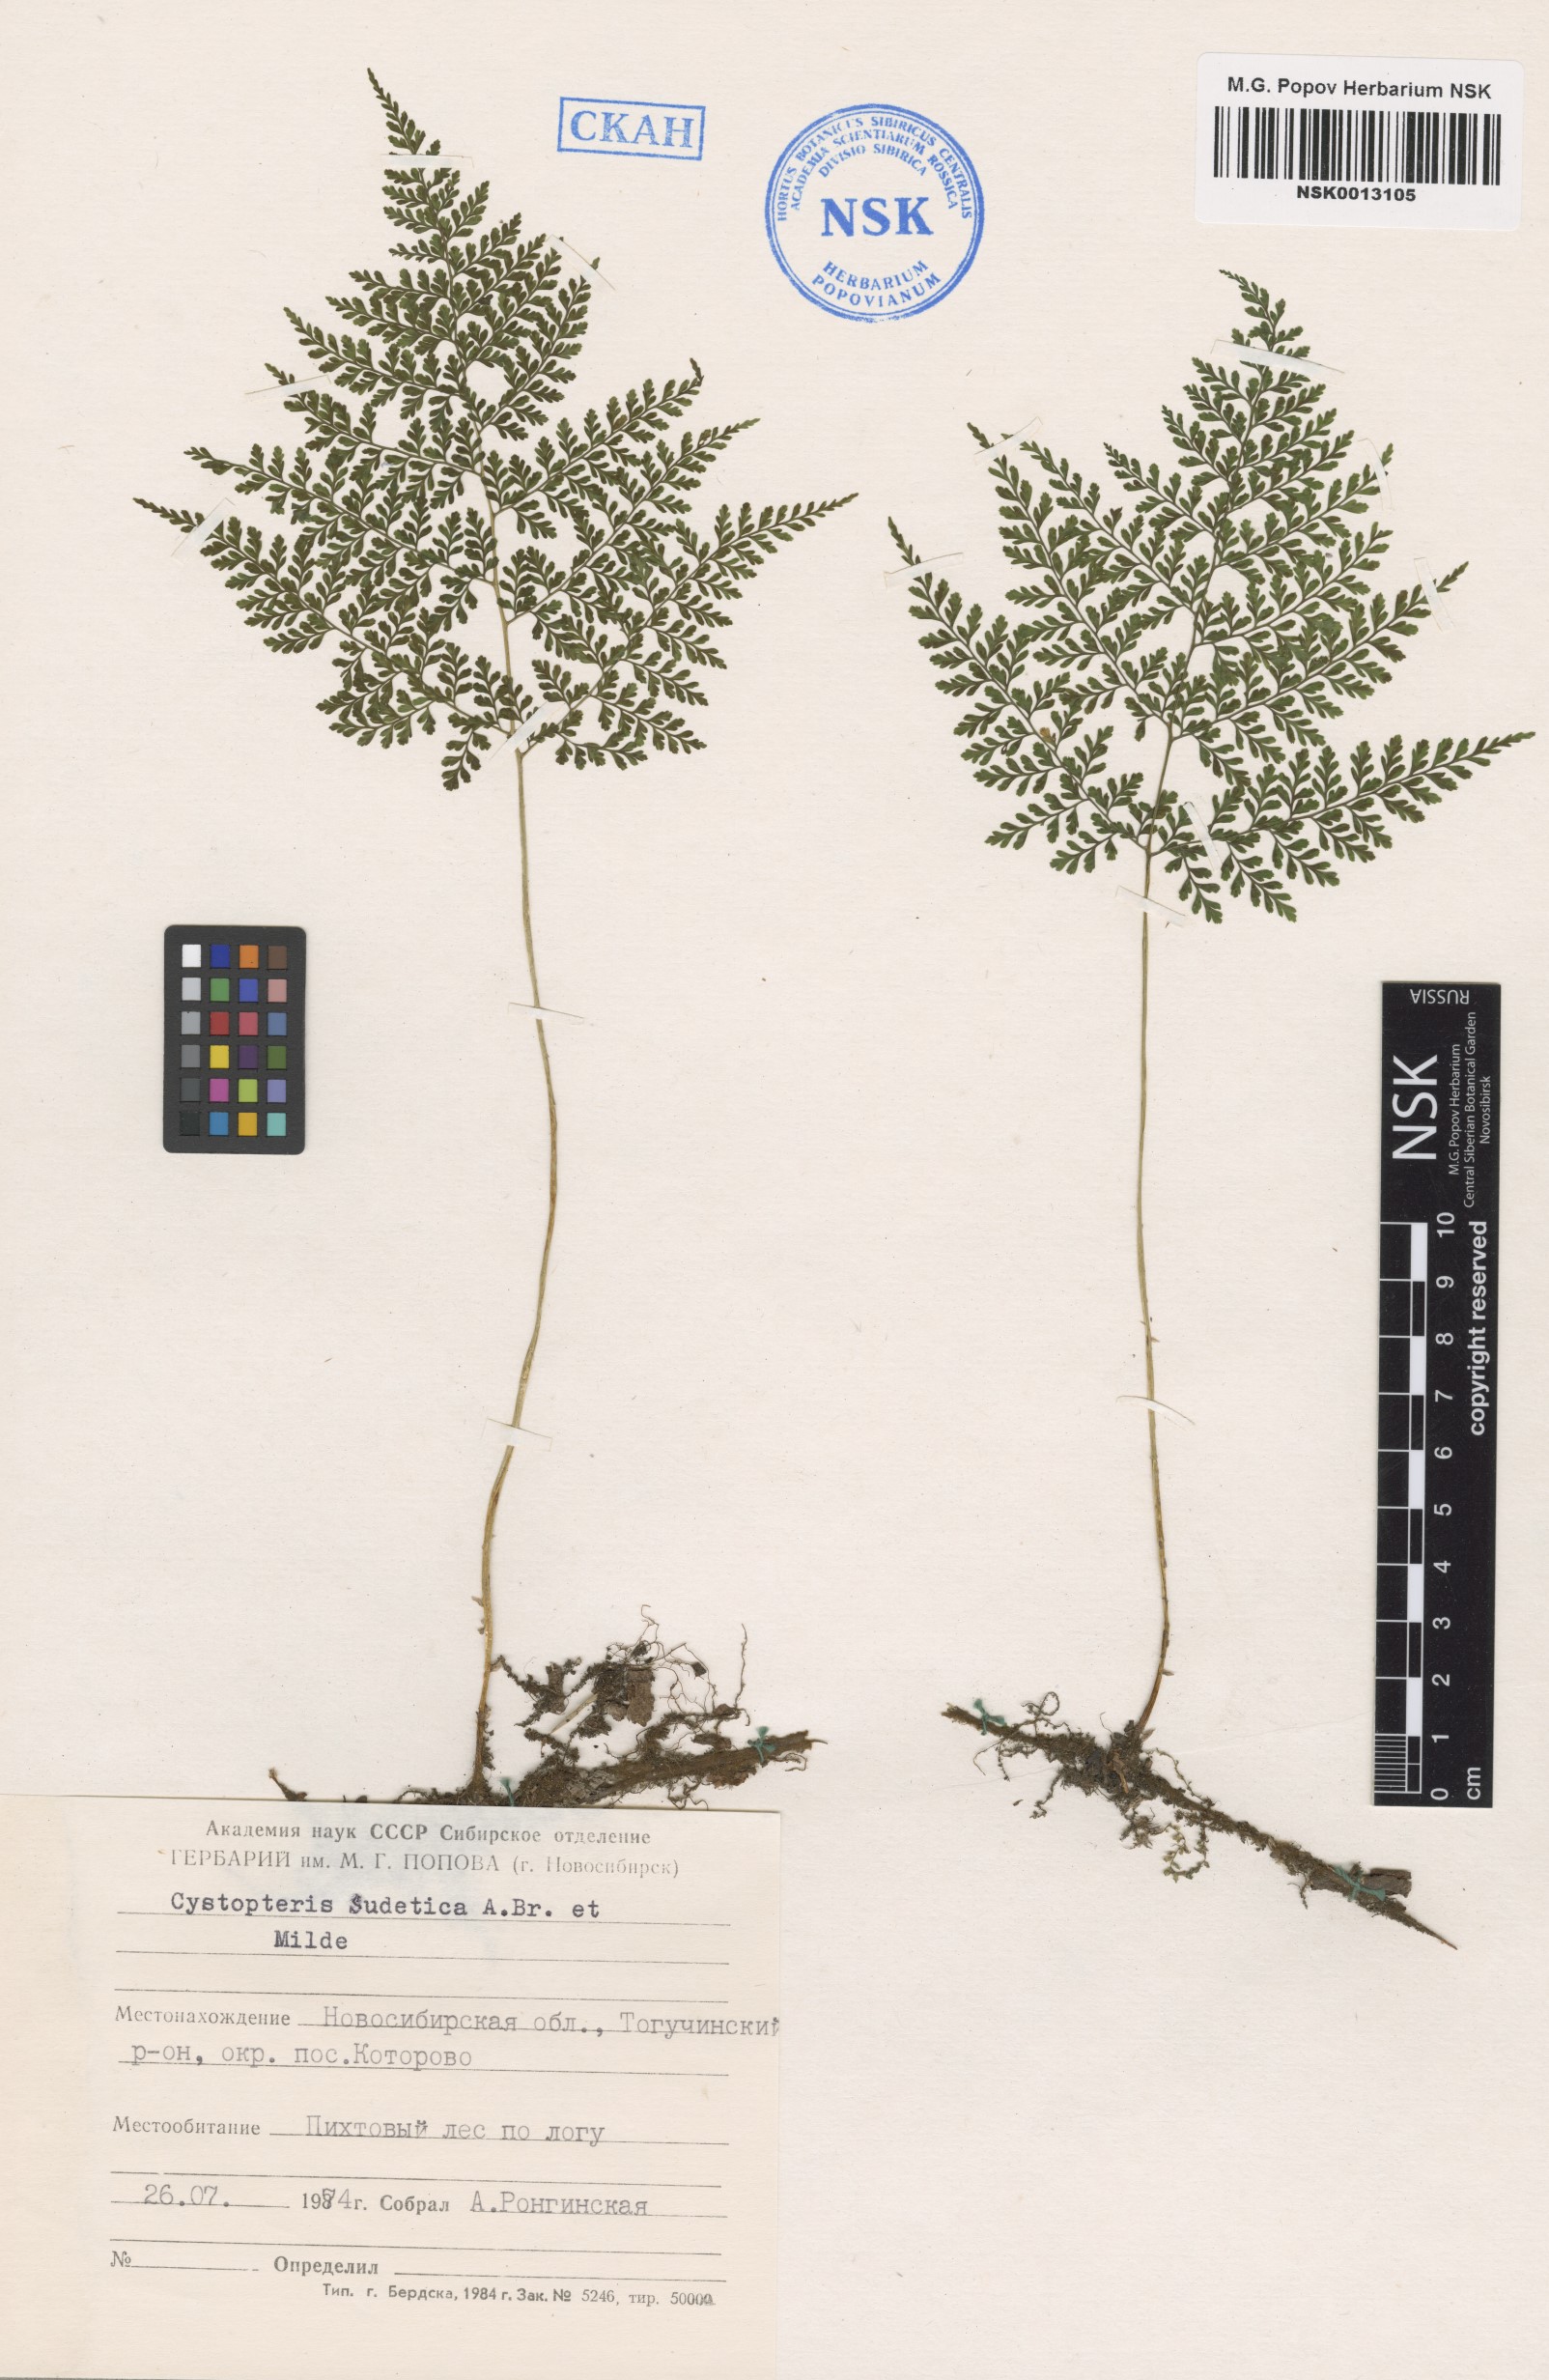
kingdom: Plantae
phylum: Tracheophyta
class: Polypodiopsida
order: Polypodiales
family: Cystopteridaceae
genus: Cystopteris
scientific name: Cystopteris sudetica
